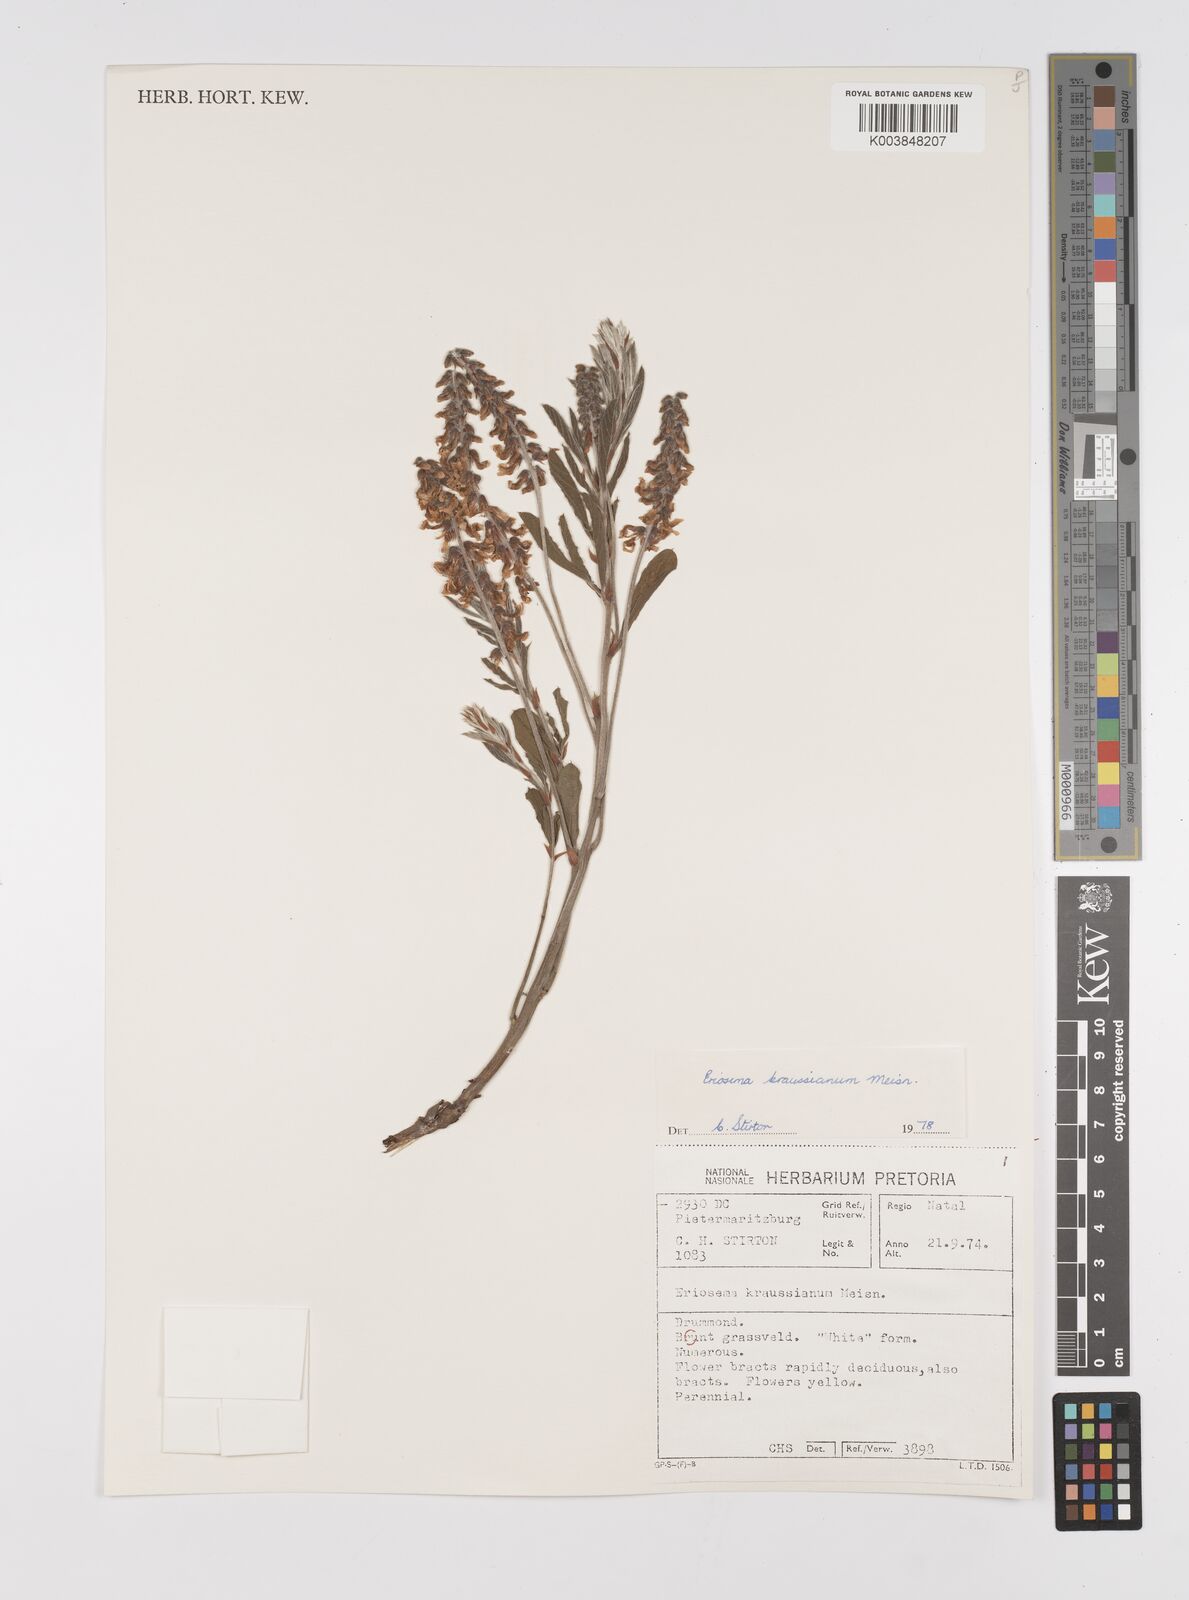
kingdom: Plantae
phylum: Tracheophyta
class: Magnoliopsida
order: Fabales
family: Fabaceae
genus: Eriosema
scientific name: Eriosema kraussianum
